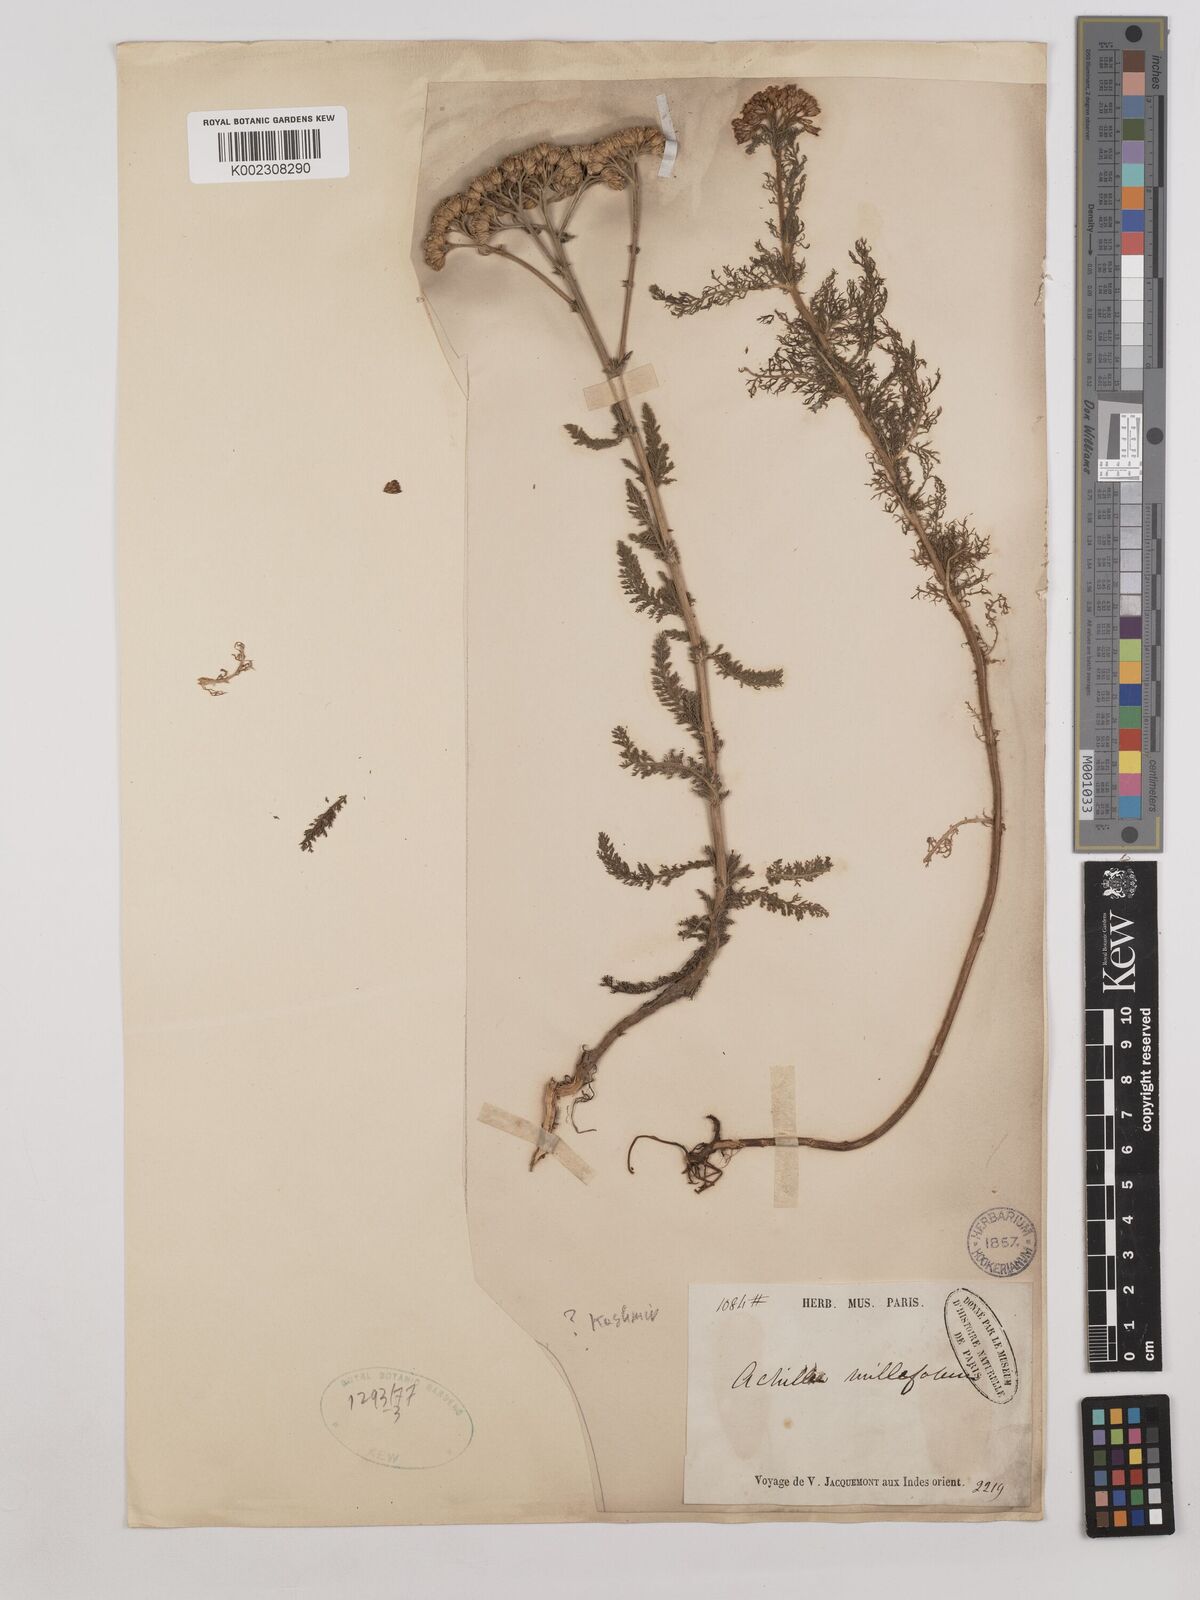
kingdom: Plantae
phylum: Tracheophyta
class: Magnoliopsida
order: Asterales
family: Asteraceae
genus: Achillea
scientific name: Achillea millefolium
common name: Yarrow
